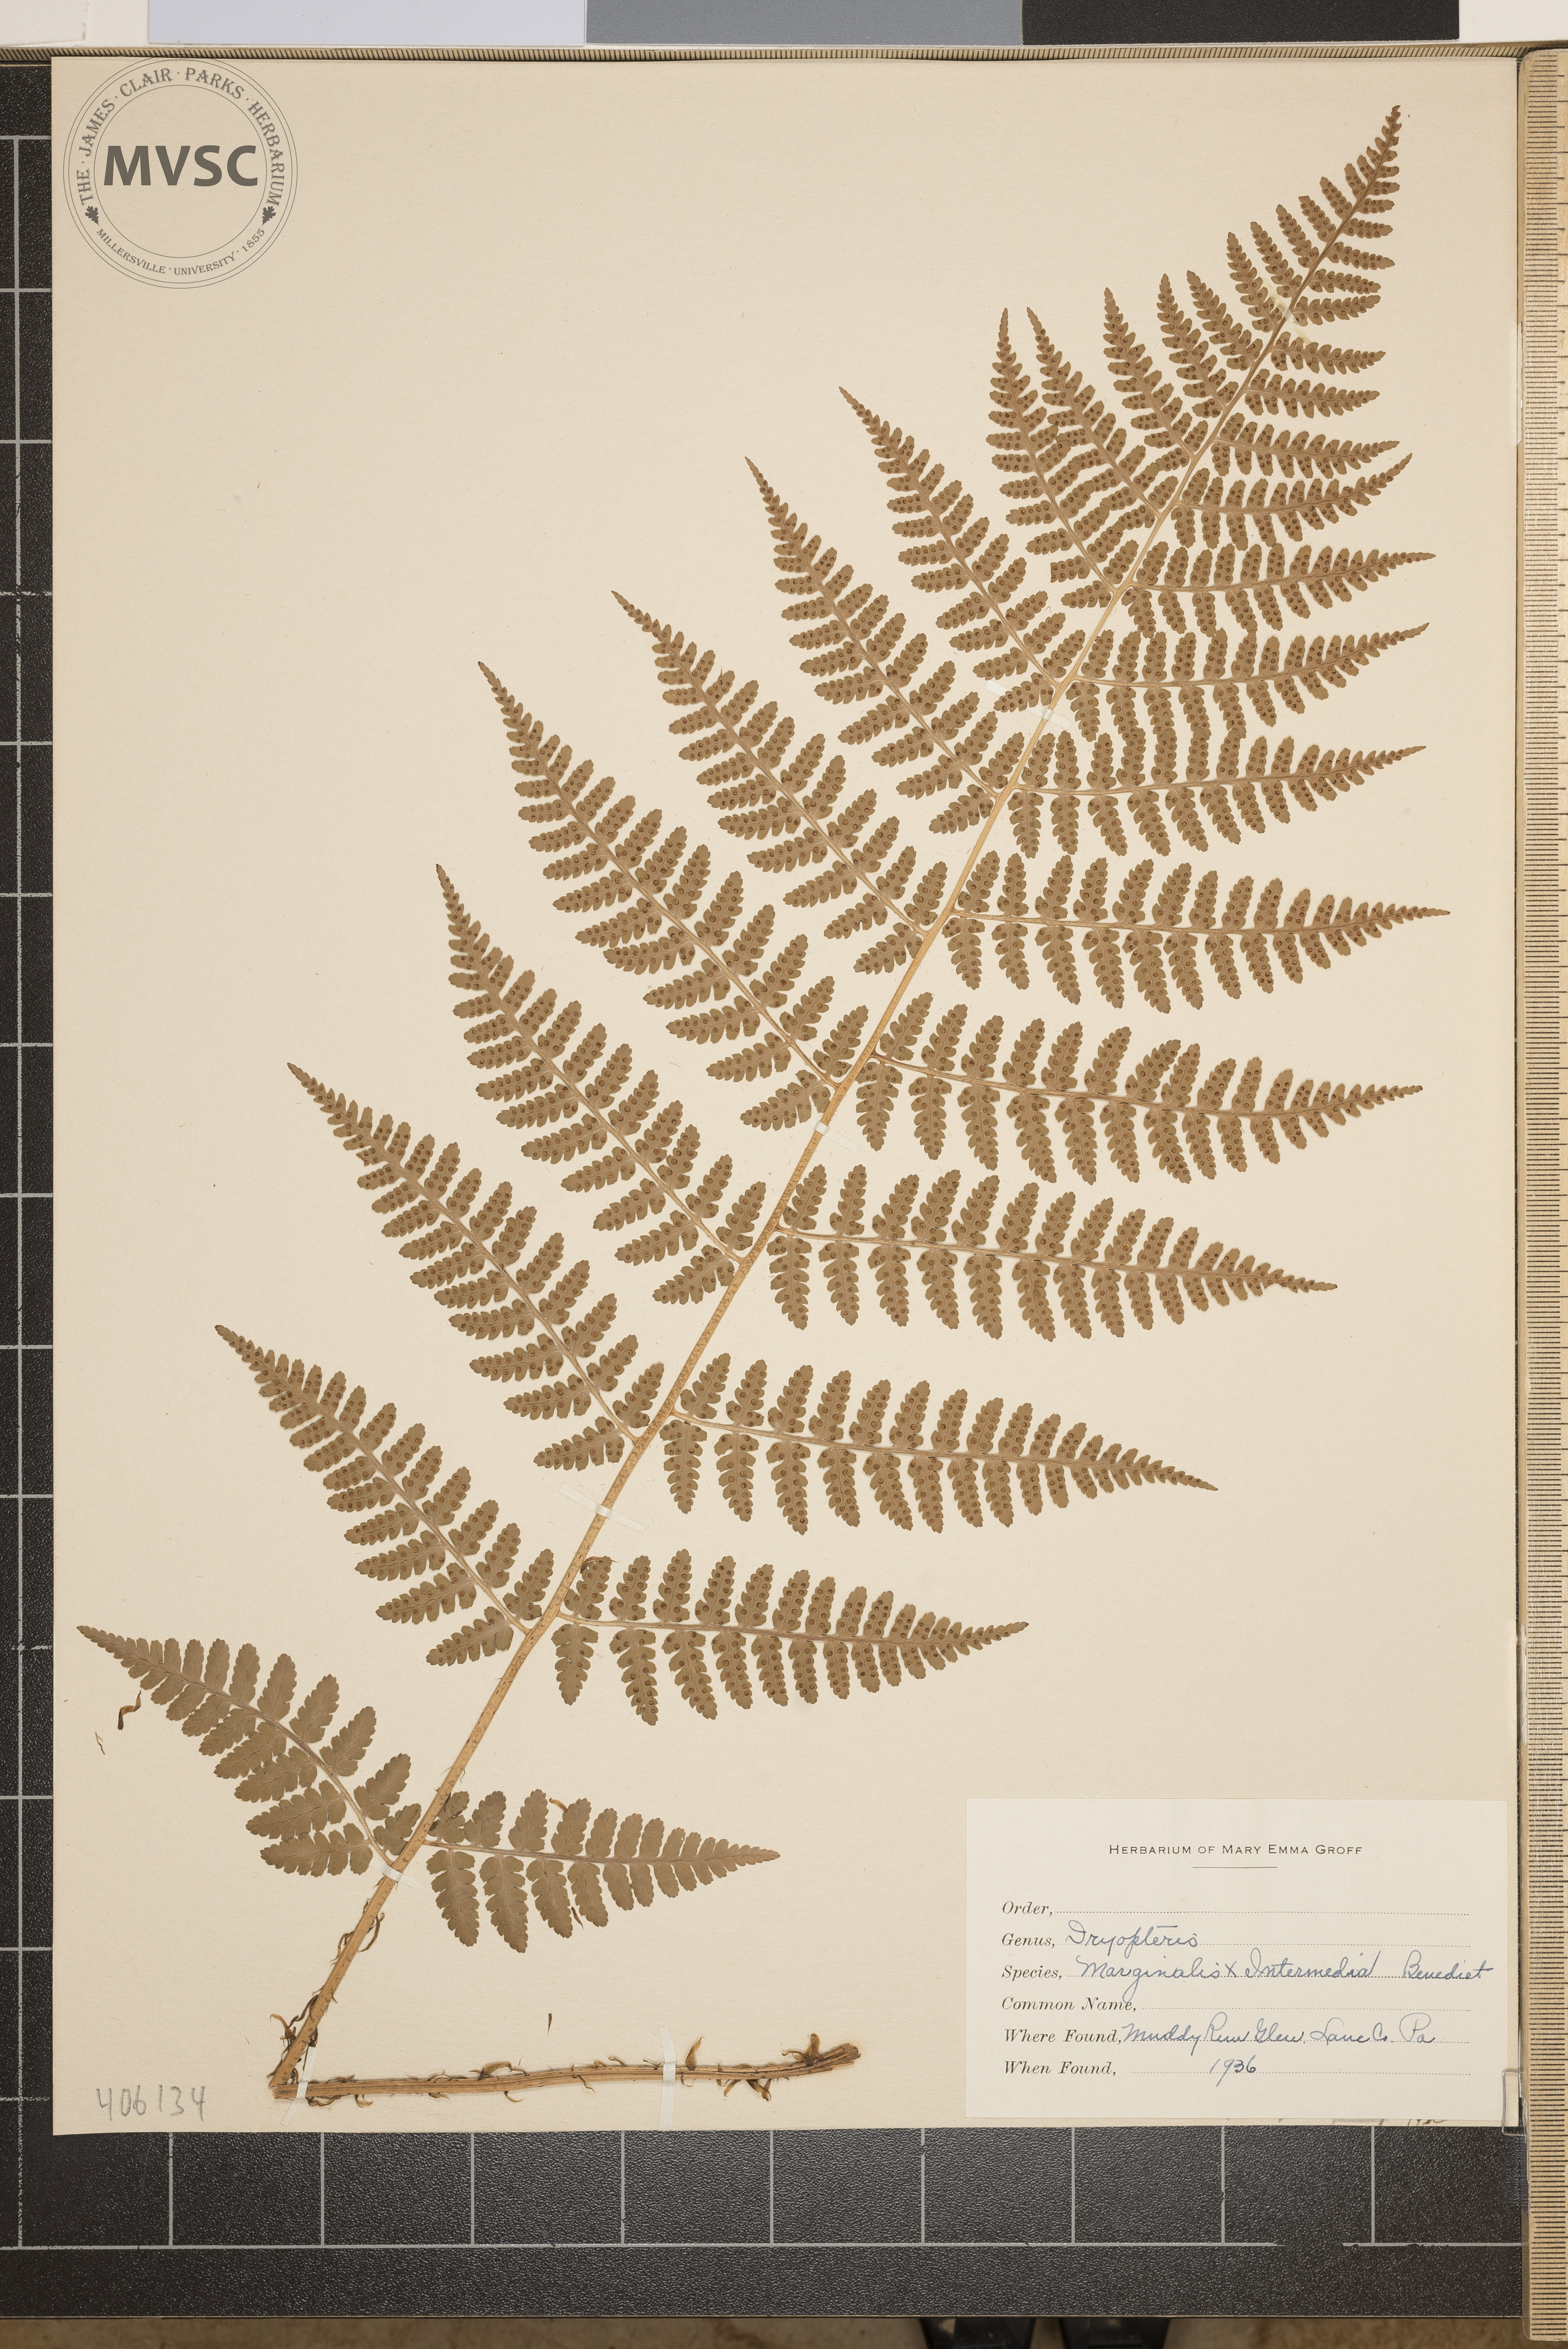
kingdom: Plantae
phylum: Tracheophyta
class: Polypodiopsida
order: Polypodiales
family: Dryopteridaceae
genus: Dryopteris
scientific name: Dryopteris
